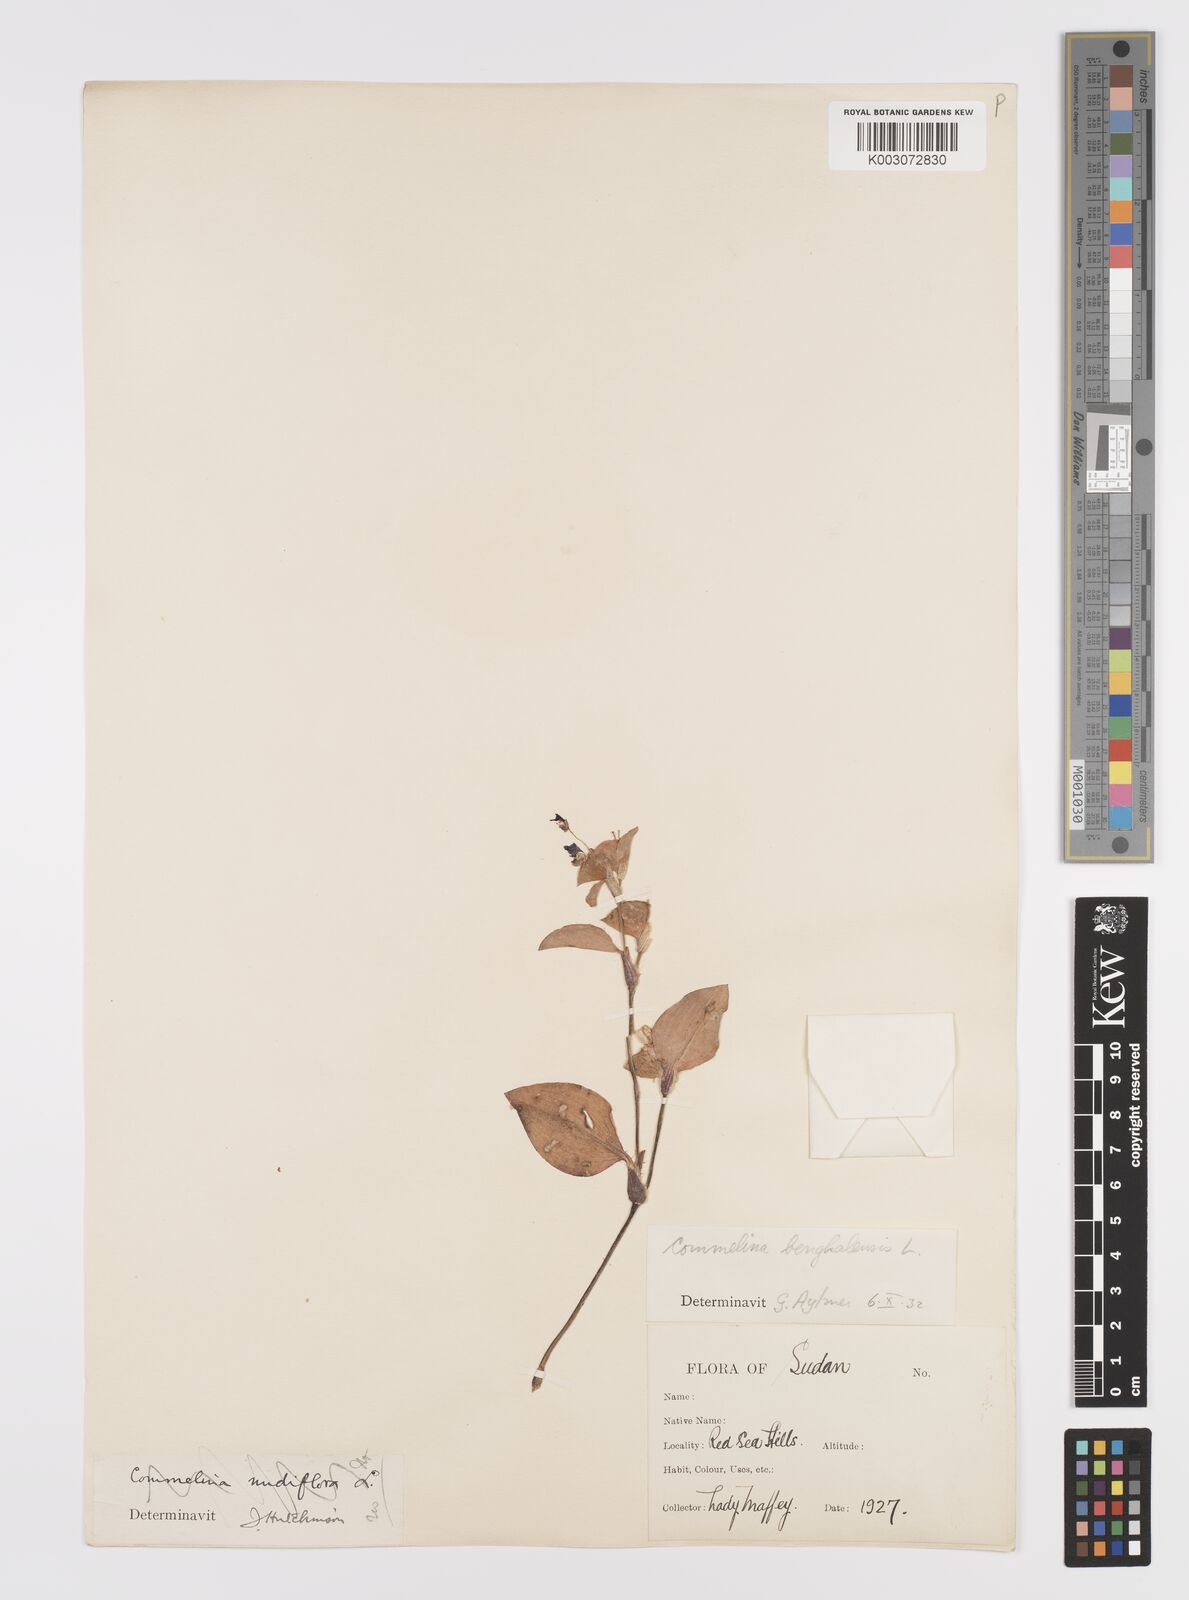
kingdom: Plantae
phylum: Tracheophyta
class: Liliopsida
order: Commelinales
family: Commelinaceae
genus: Commelina
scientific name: Commelina benghalensis
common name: Jio
